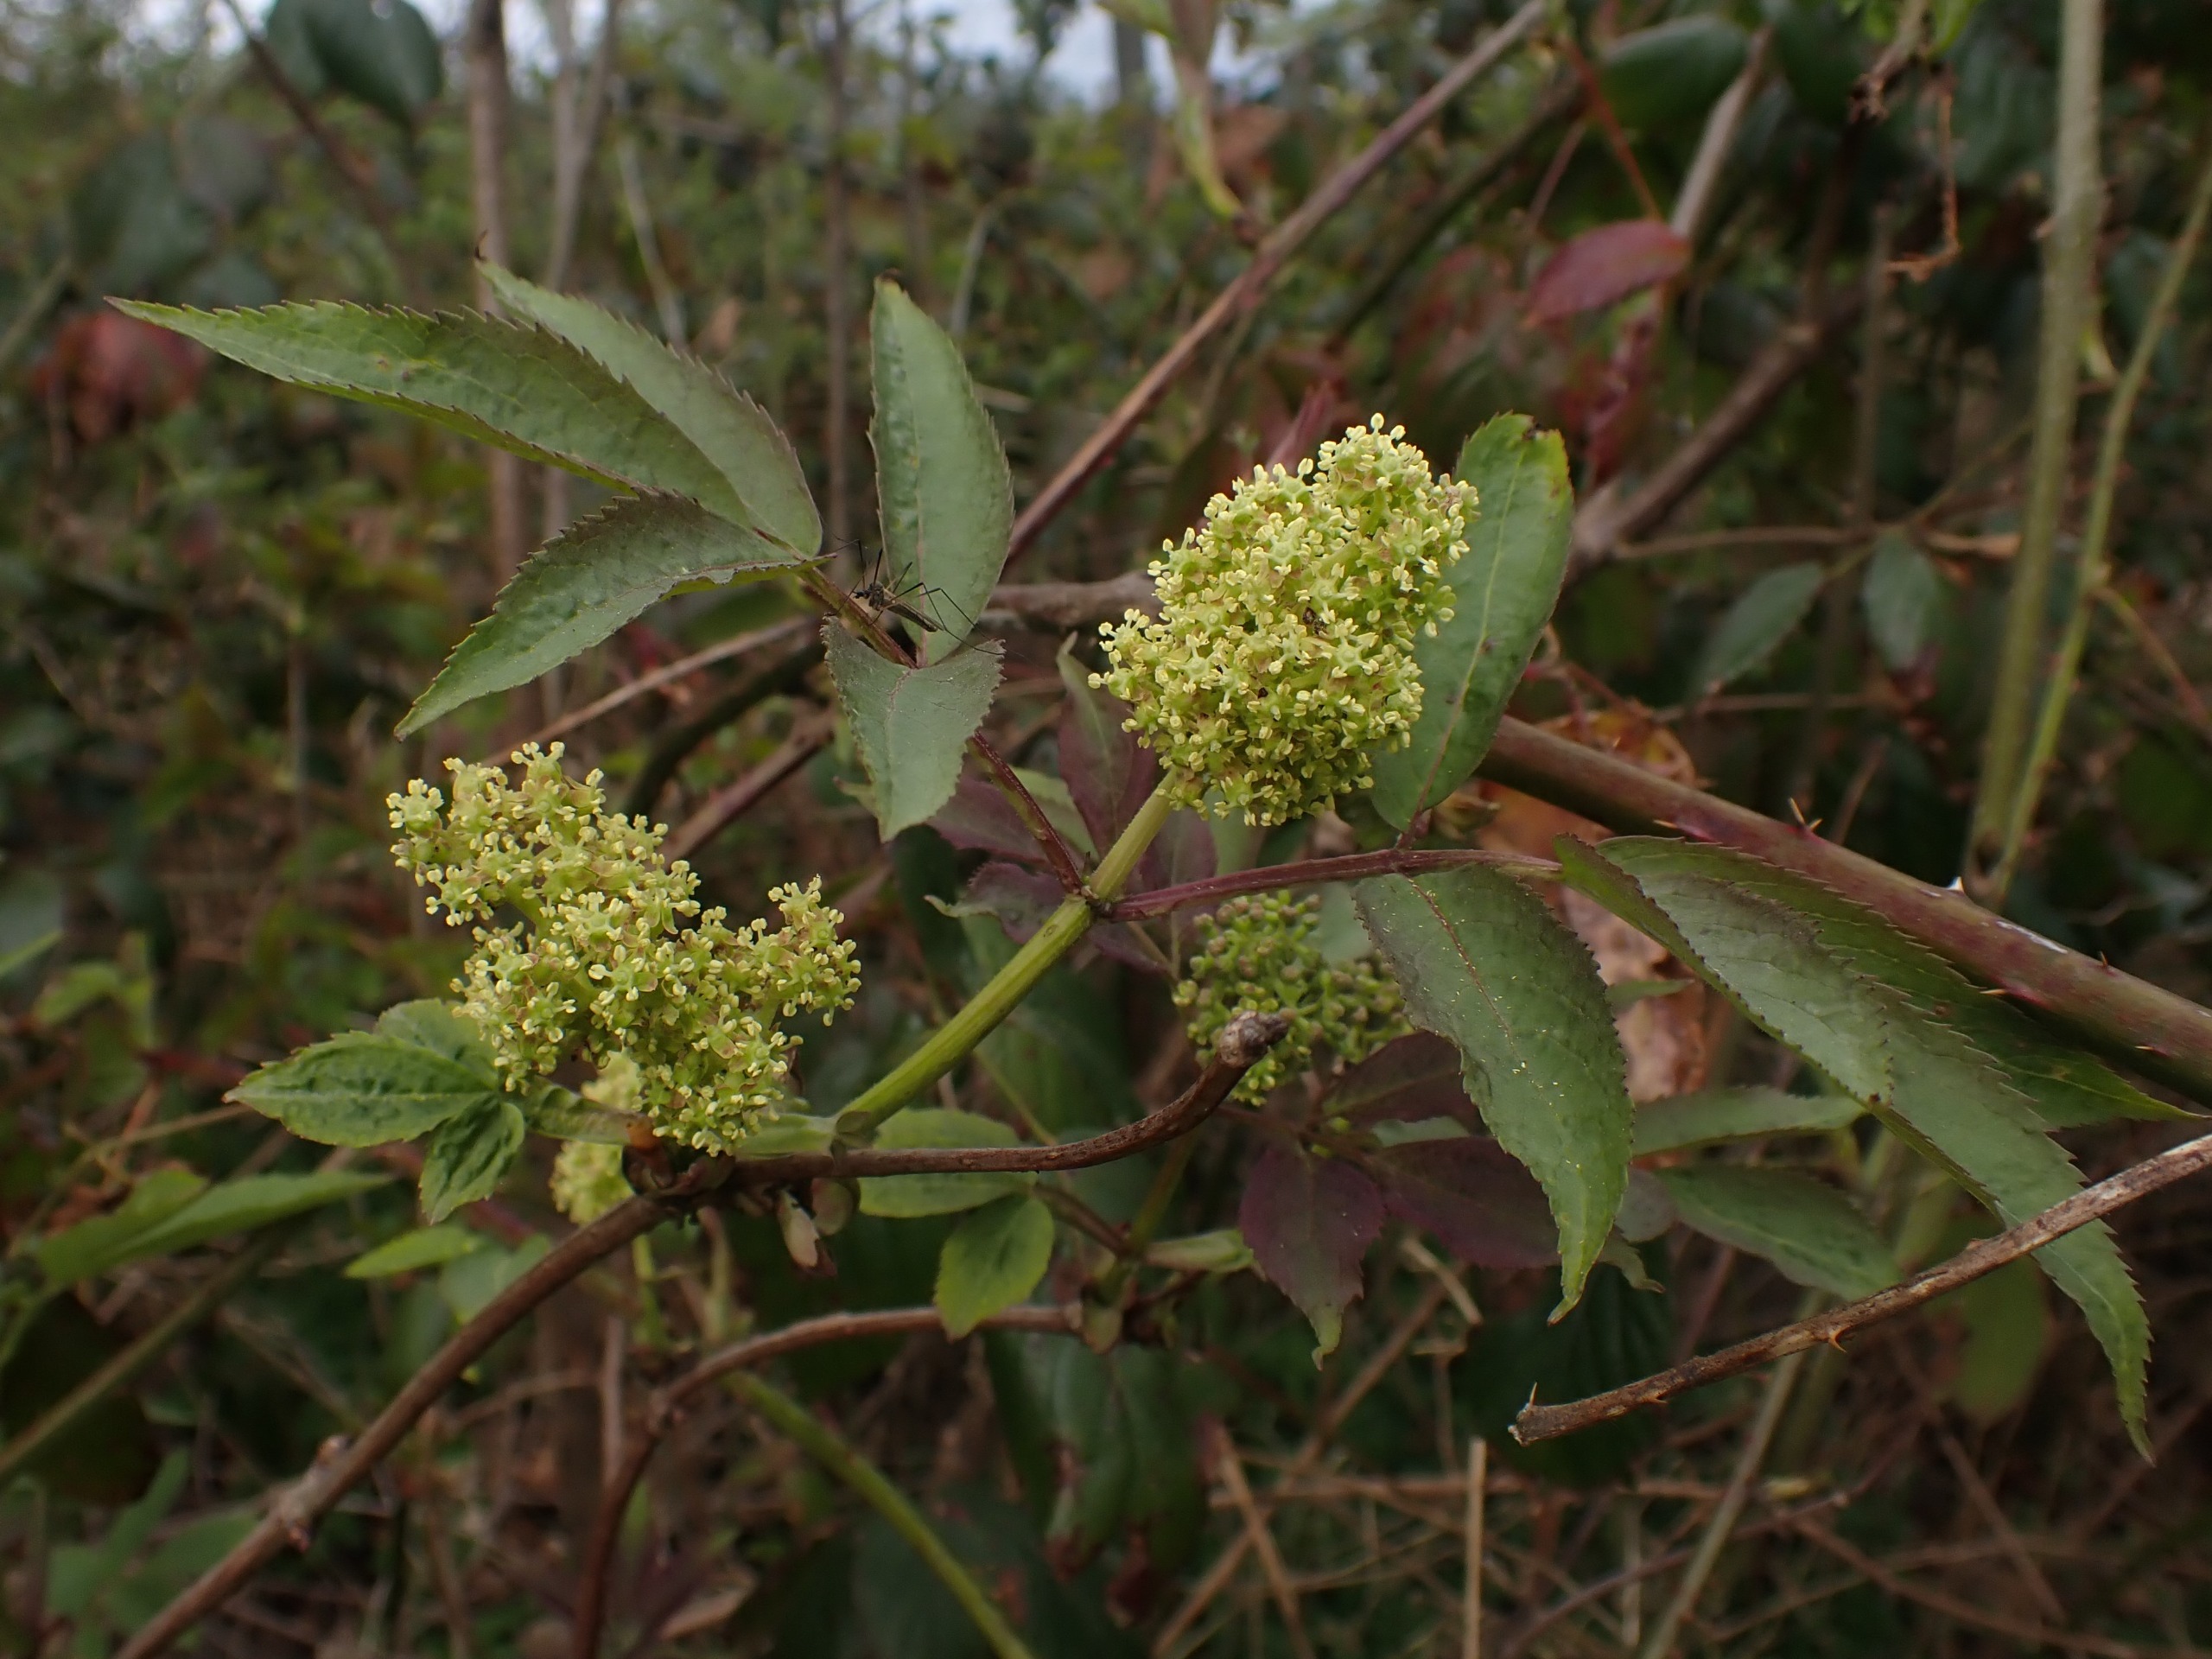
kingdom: Plantae
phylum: Tracheophyta
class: Magnoliopsida
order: Dipsacales
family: Viburnaceae
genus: Sambucus
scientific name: Sambucus racemosa
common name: Drue-hyld
